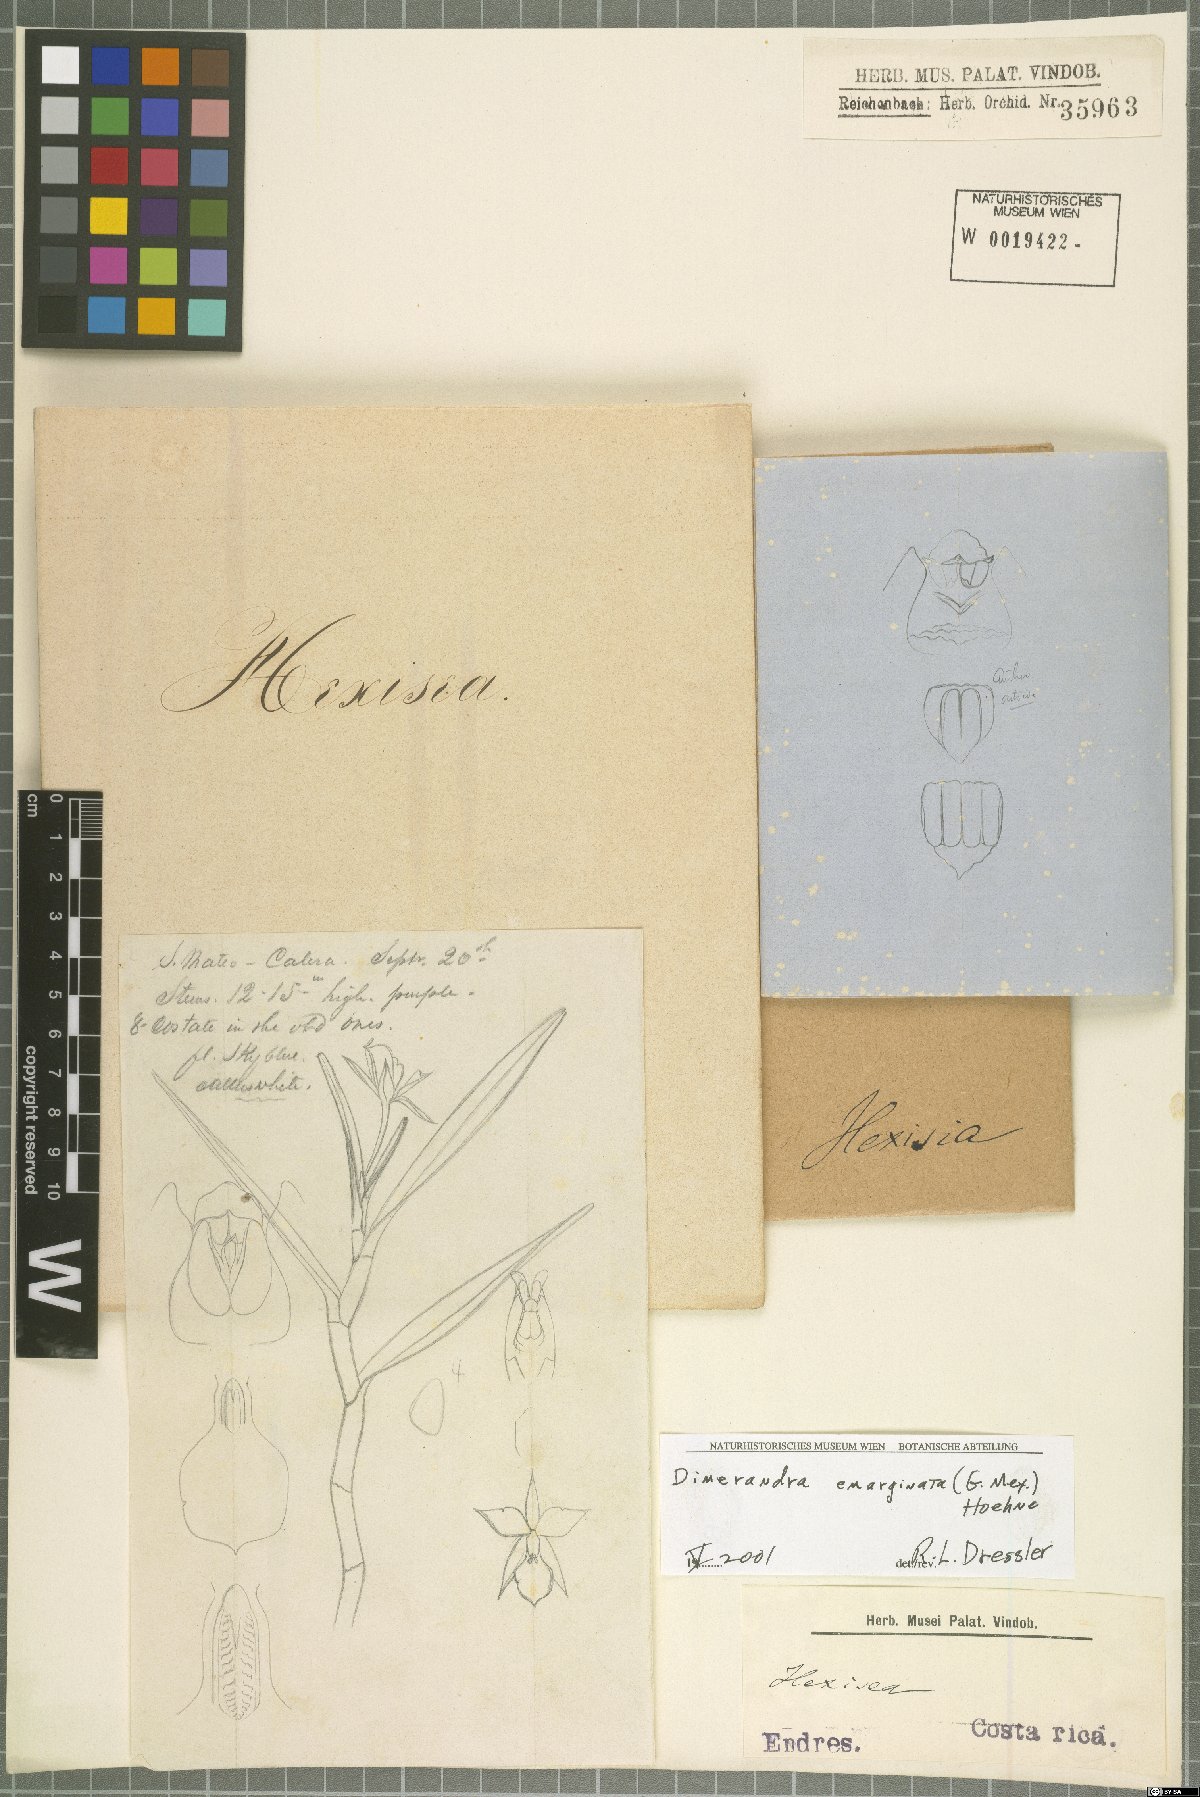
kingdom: Plantae
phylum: Tracheophyta
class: Liliopsida
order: Asparagales
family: Orchidaceae
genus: Dimerandra
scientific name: Dimerandra emarginata
